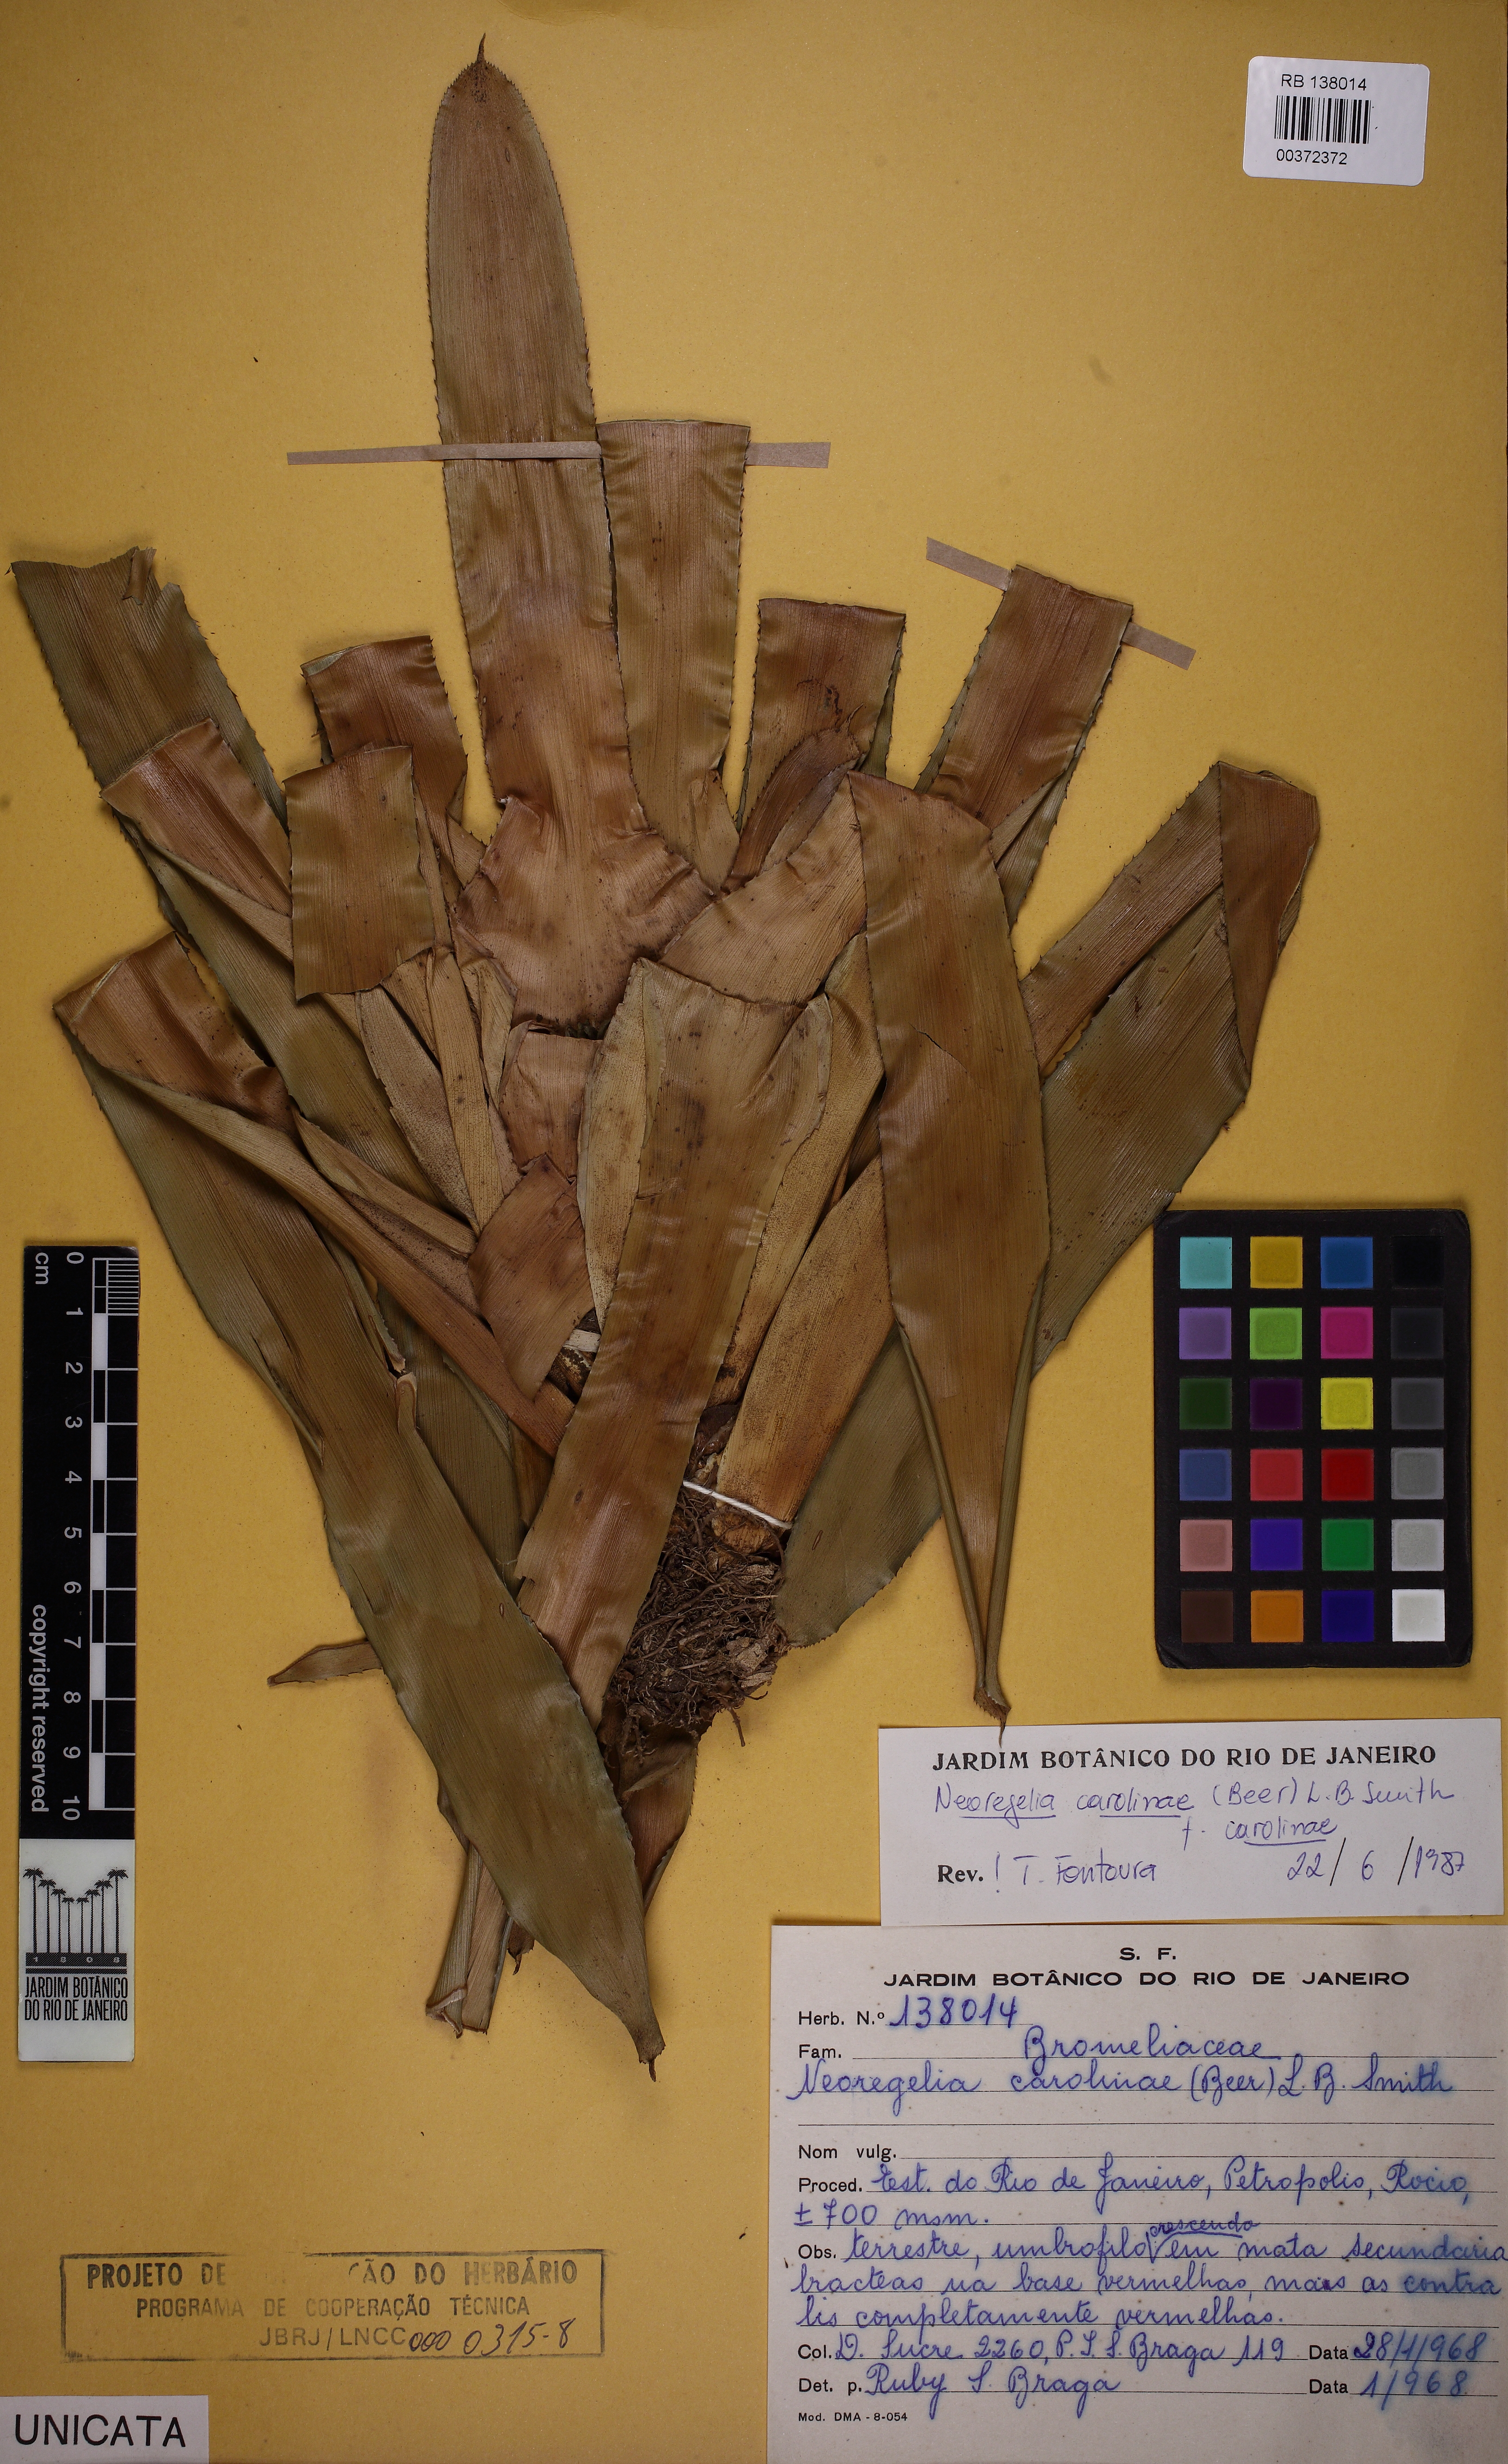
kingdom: Plantae
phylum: Tracheophyta
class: Liliopsida
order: Poales
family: Bromeliaceae
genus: Neoregelia
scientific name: Neoregelia carolinae
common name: Blushing bromeliad
